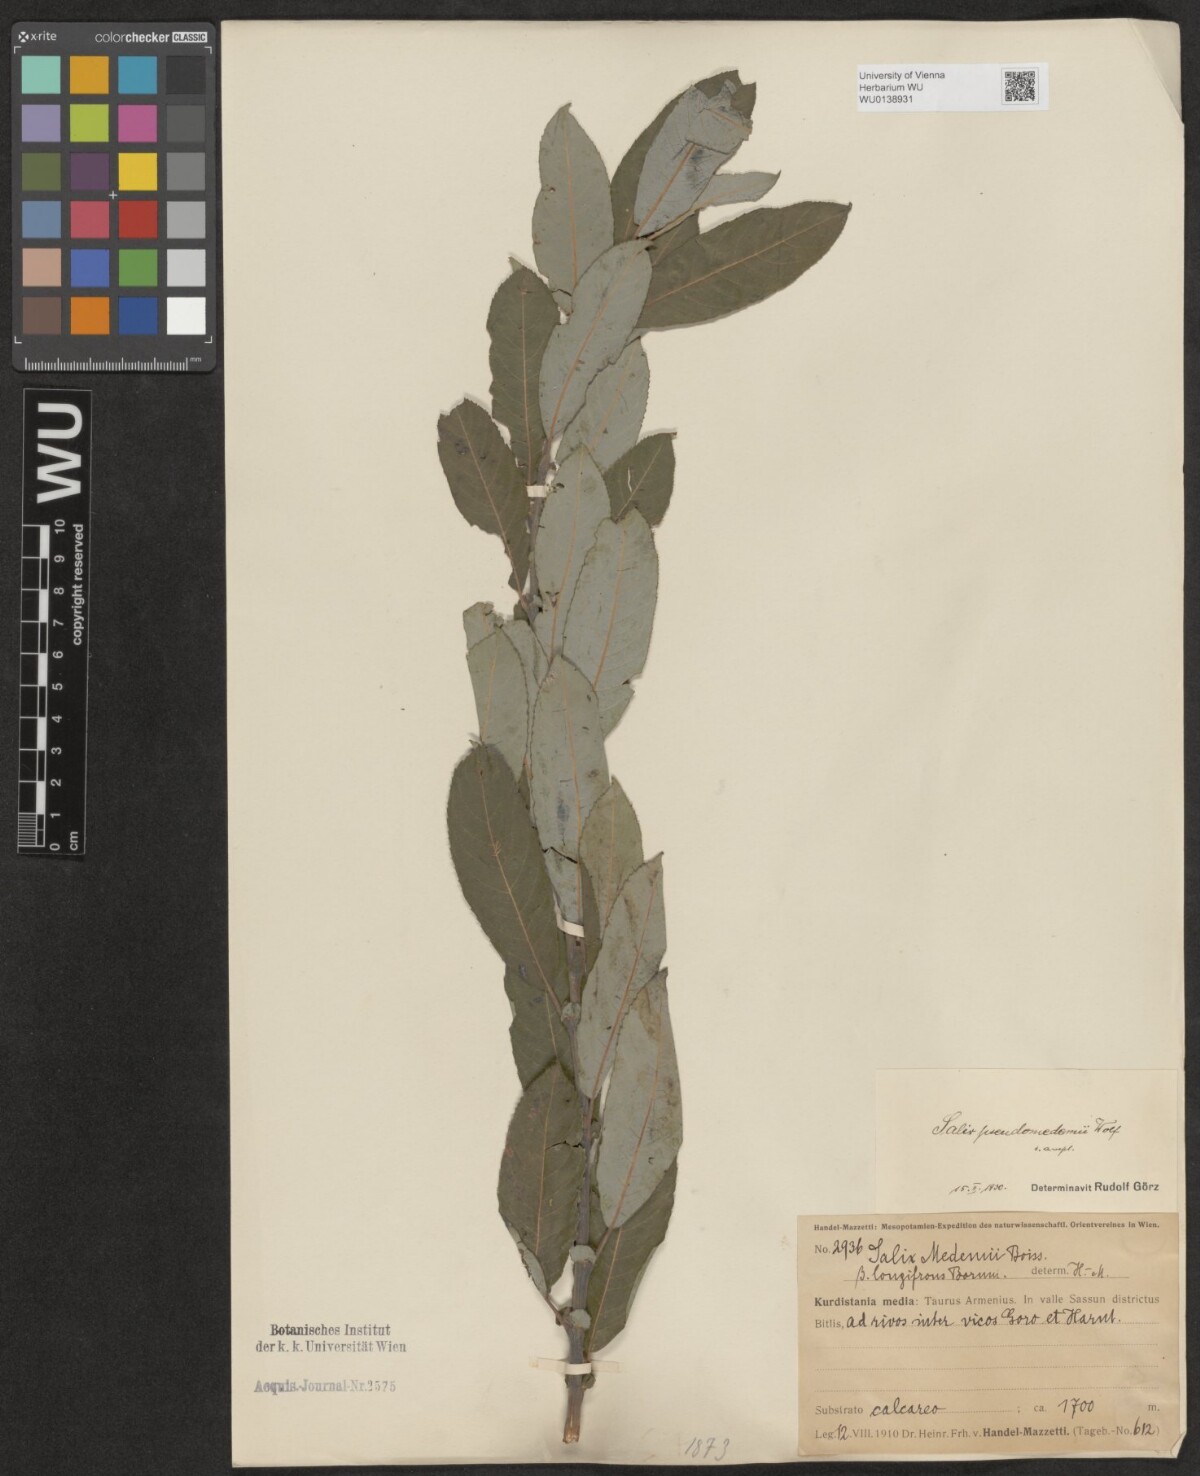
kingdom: Plantae
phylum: Tracheophyta
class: Magnoliopsida
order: Malpighiales
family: Salicaceae
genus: Salix
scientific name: Salix pseudomedemii
